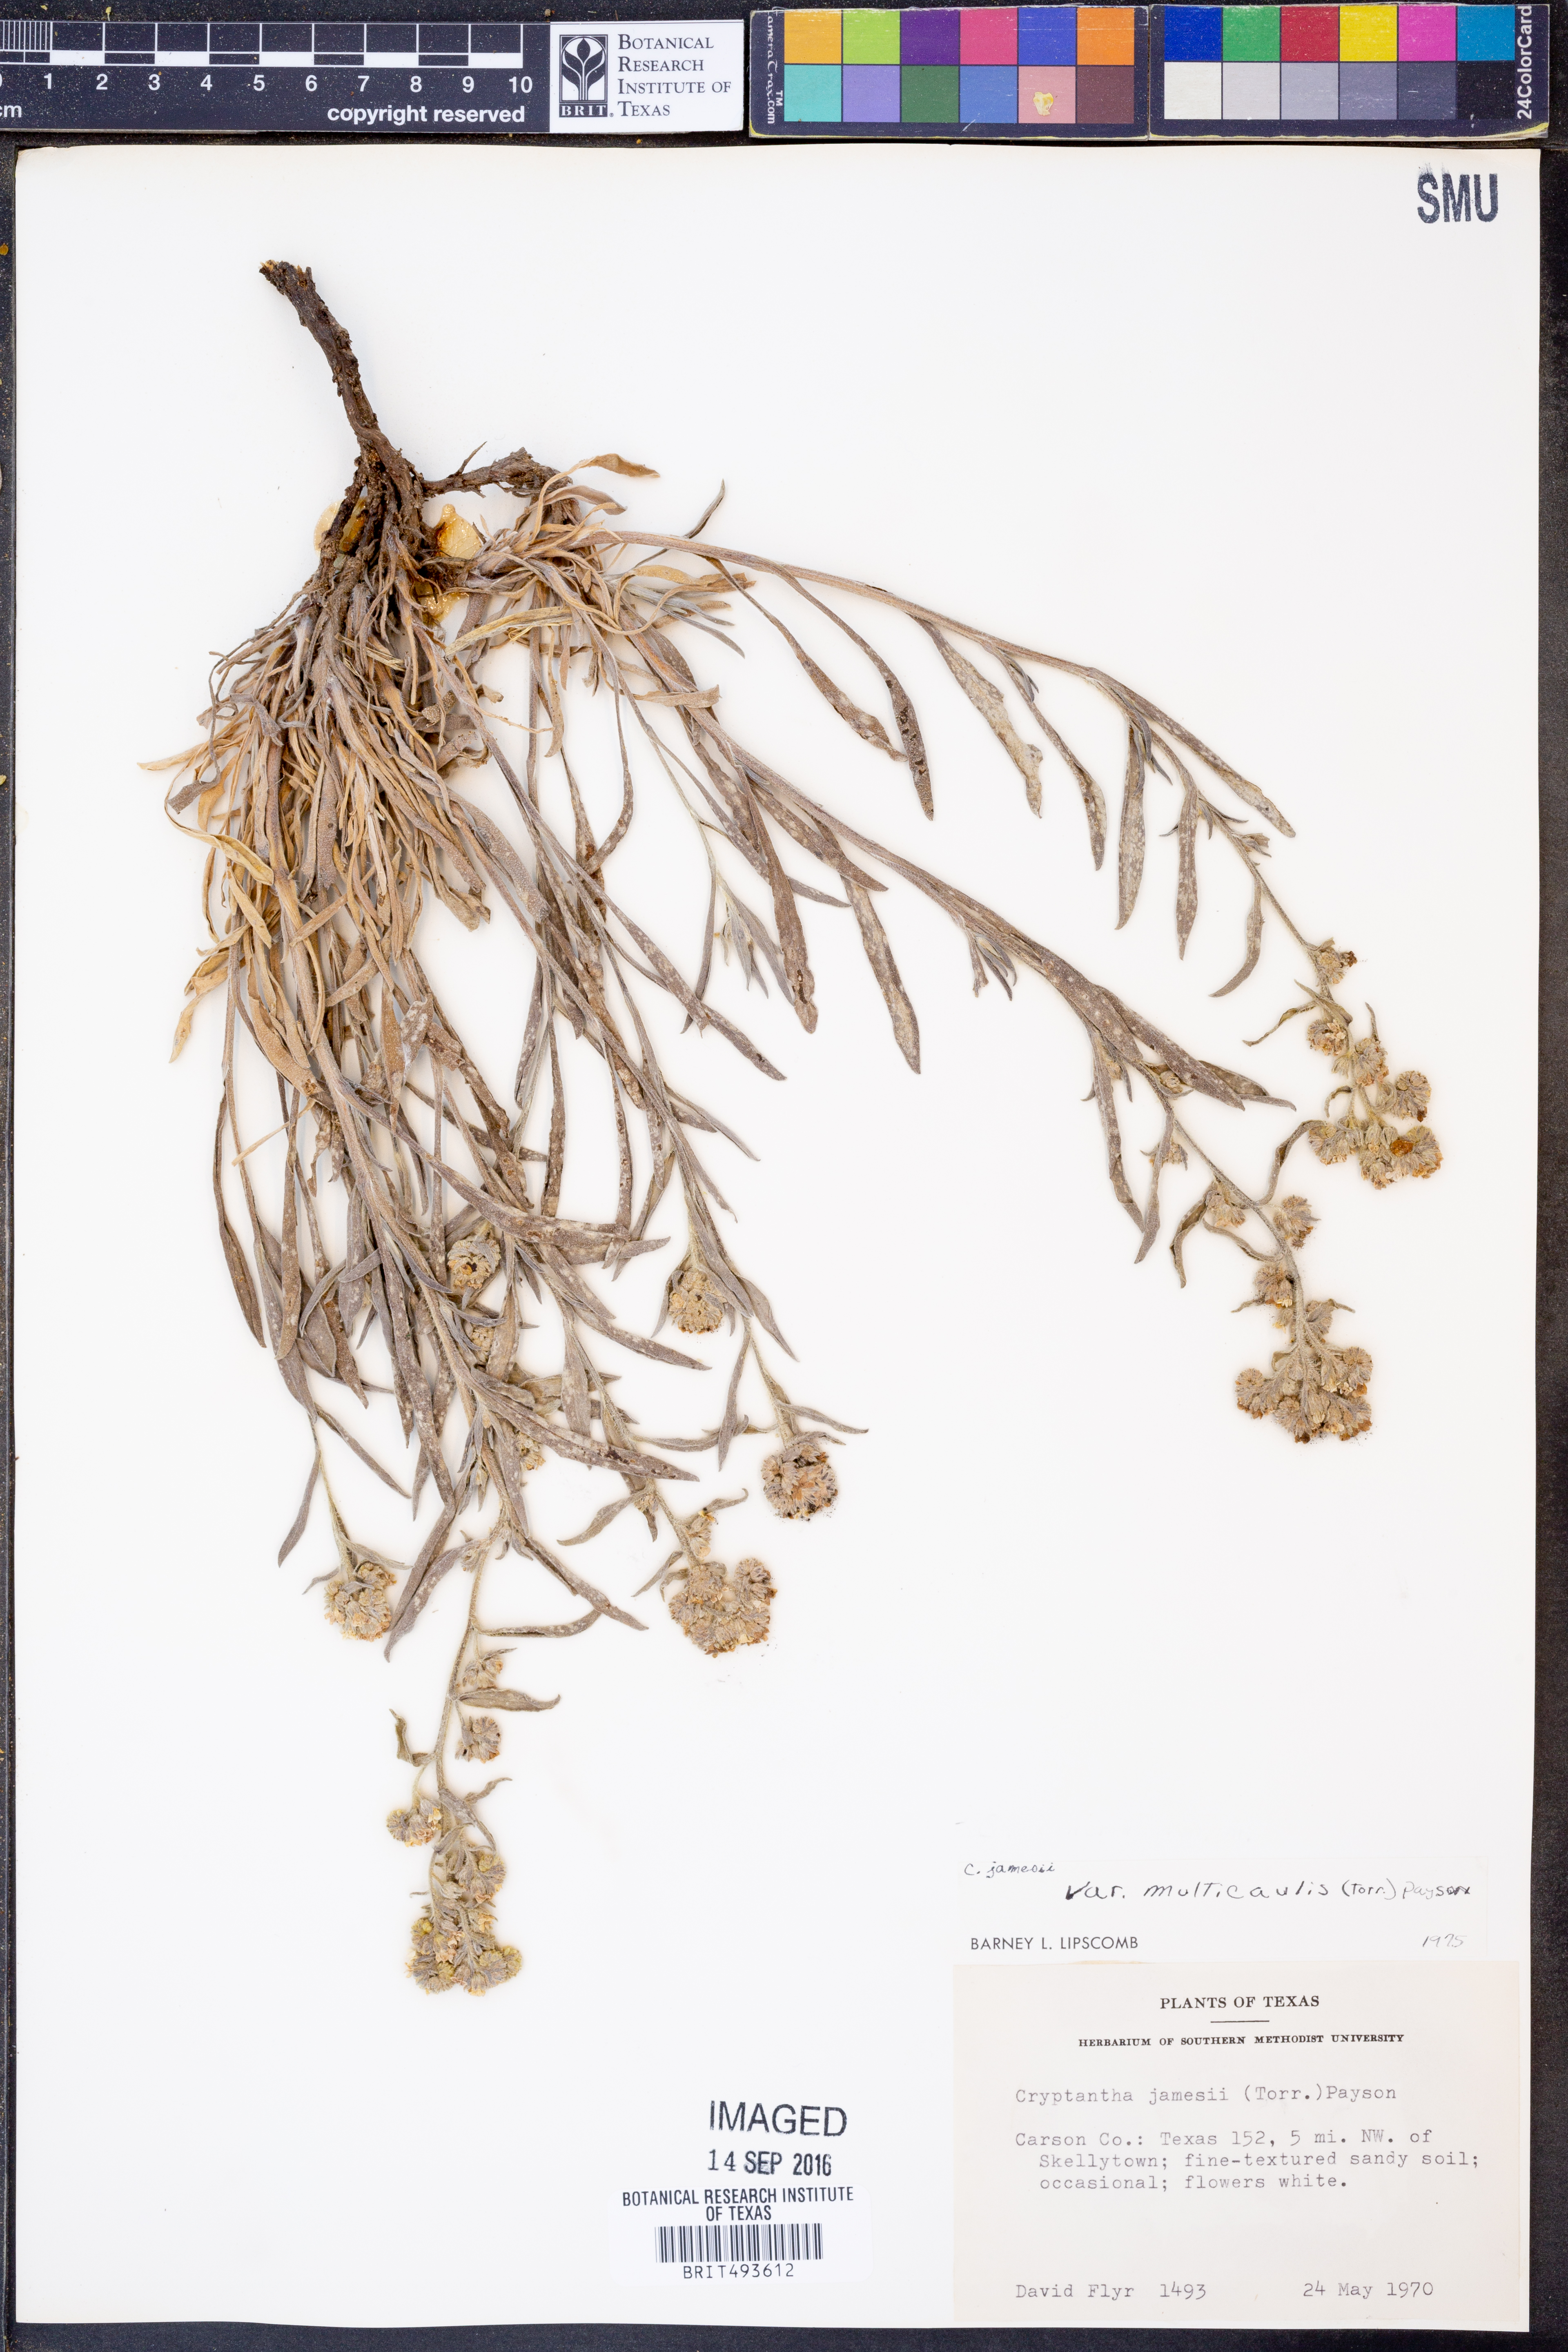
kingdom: Plantae
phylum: Tracheophyta
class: Magnoliopsida
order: Boraginales
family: Boraginaceae
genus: Oreocarya
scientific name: Oreocarya suffruticosa
